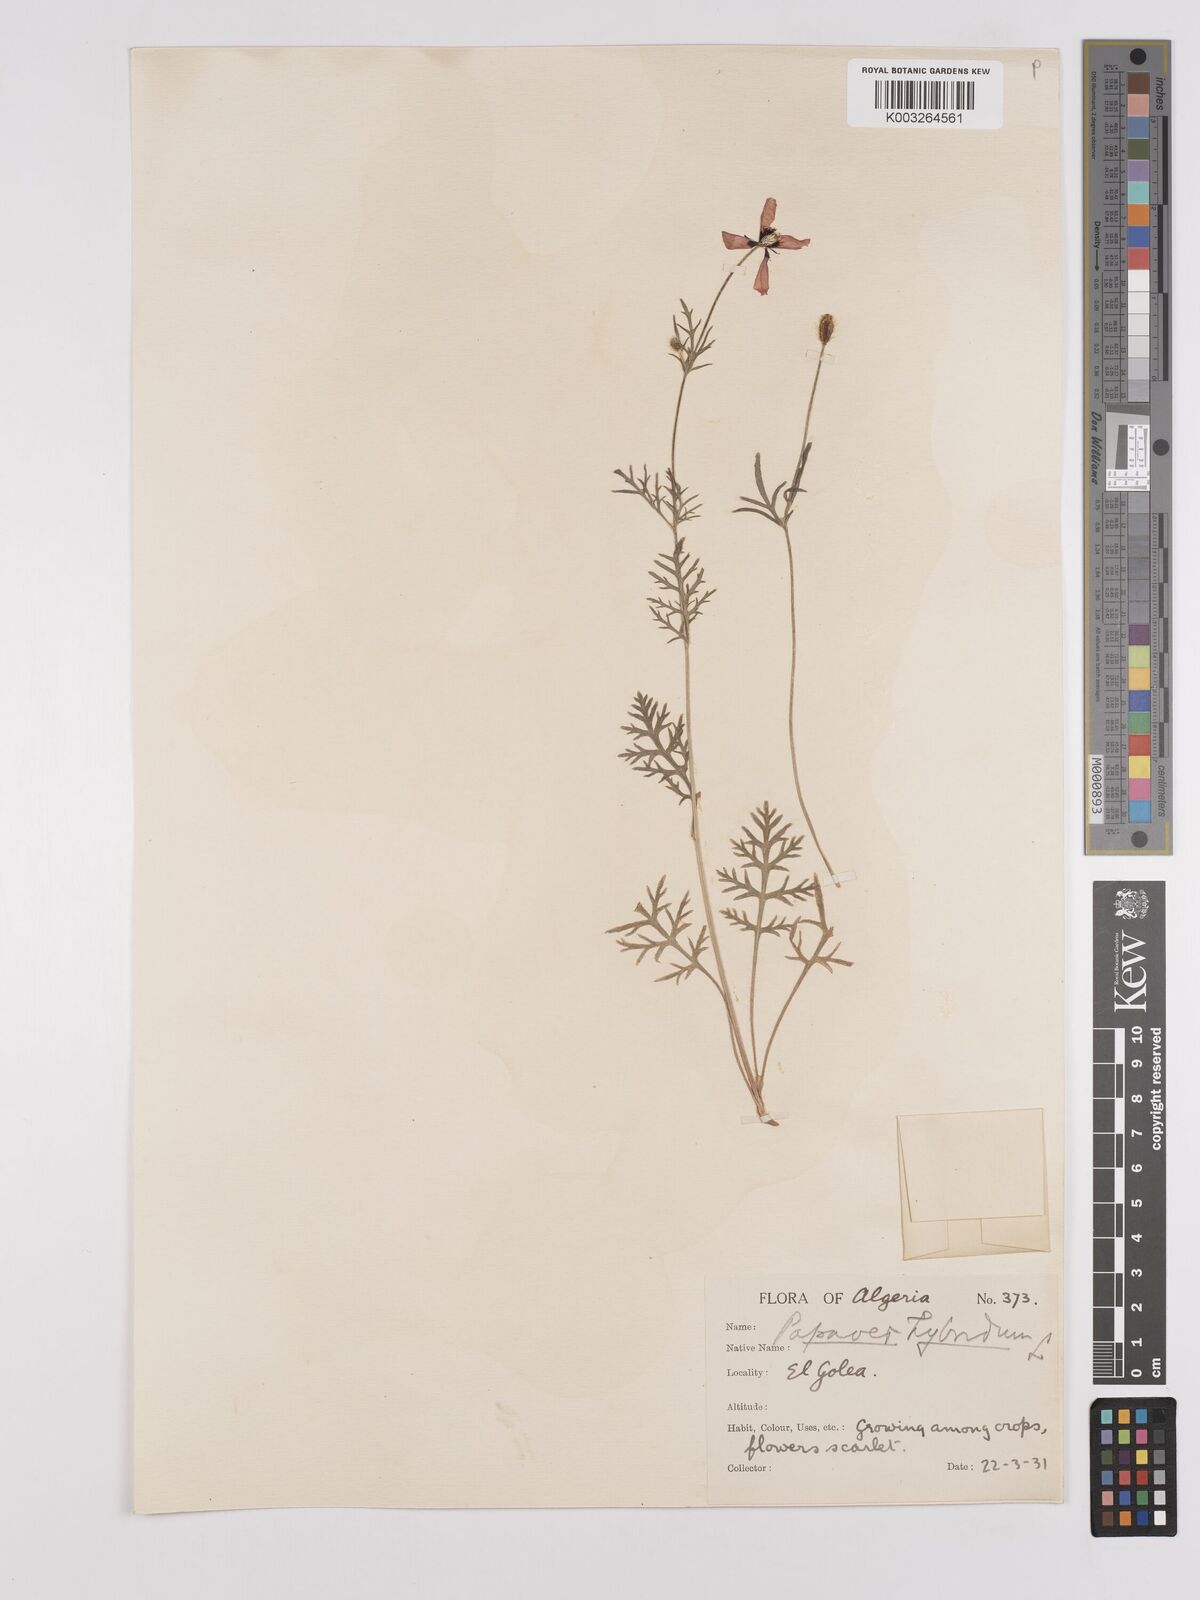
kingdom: Plantae
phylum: Tracheophyta
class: Magnoliopsida
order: Ranunculales
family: Papaveraceae
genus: Papaver
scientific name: Papaver
